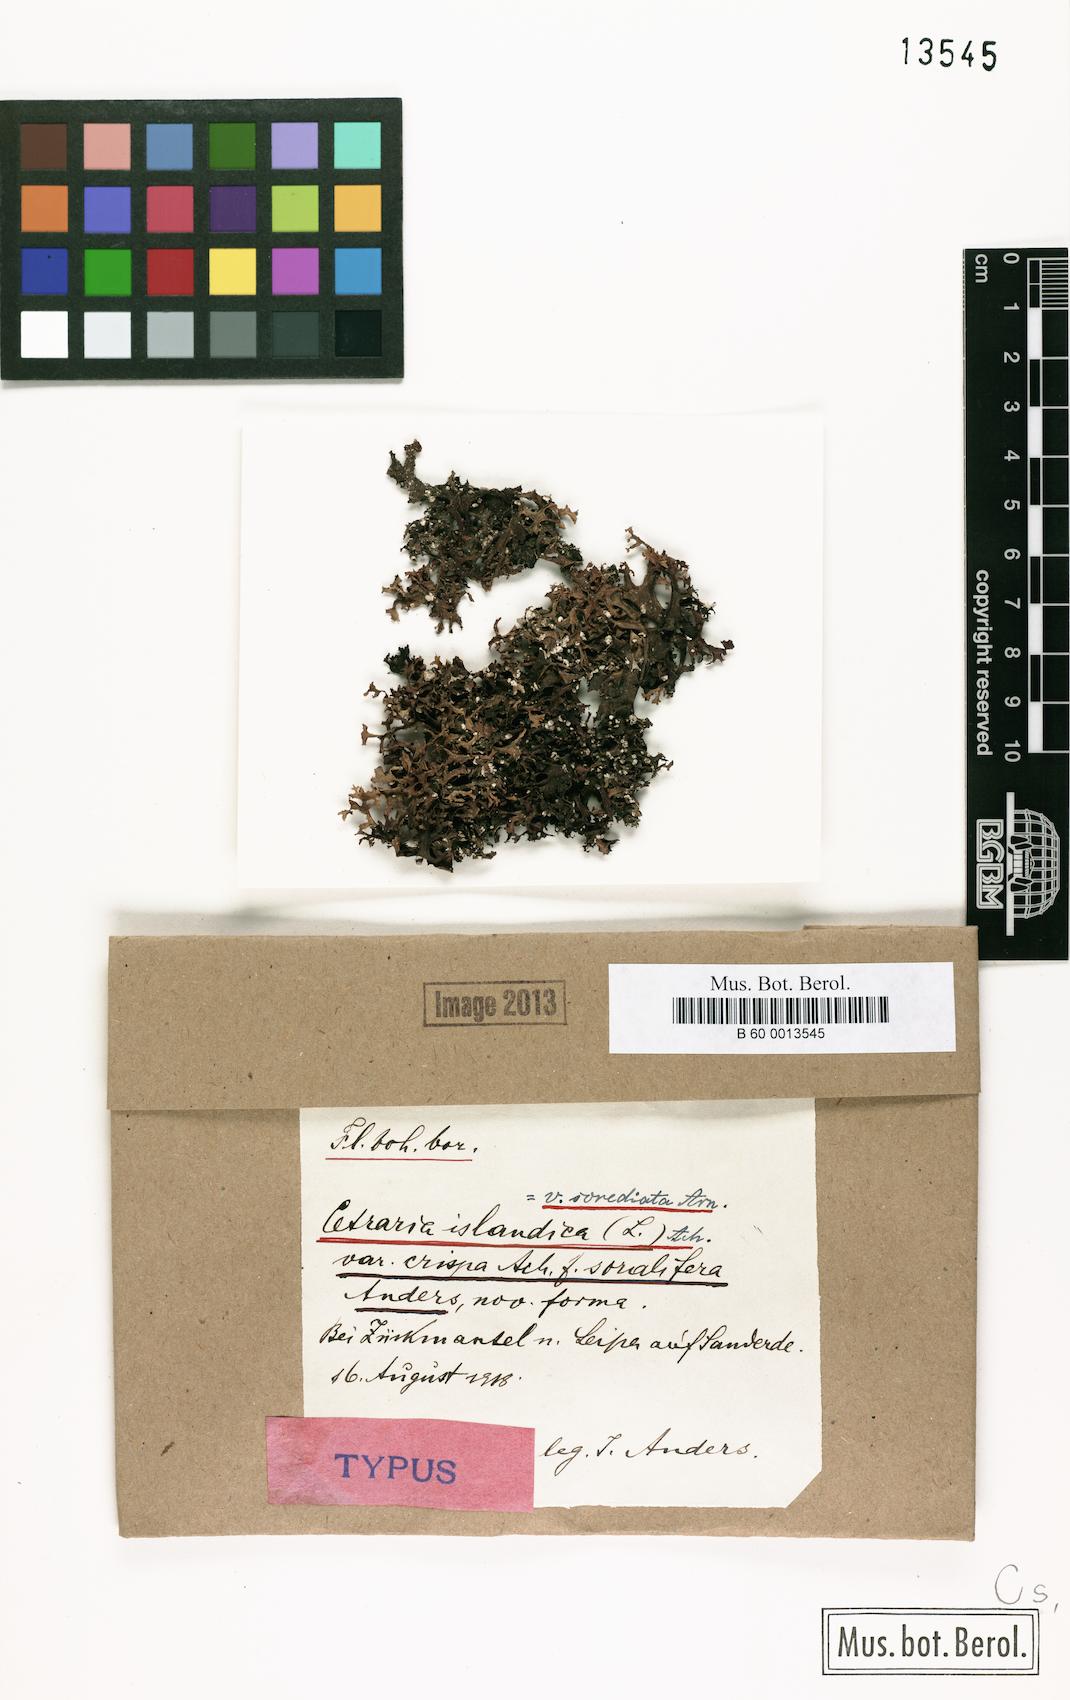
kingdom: Fungi
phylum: Ascomycota
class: Lecanoromycetes
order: Lecanorales
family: Parmeliaceae
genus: Cetraria
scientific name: Cetraria islandica
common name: Iceland lichen
